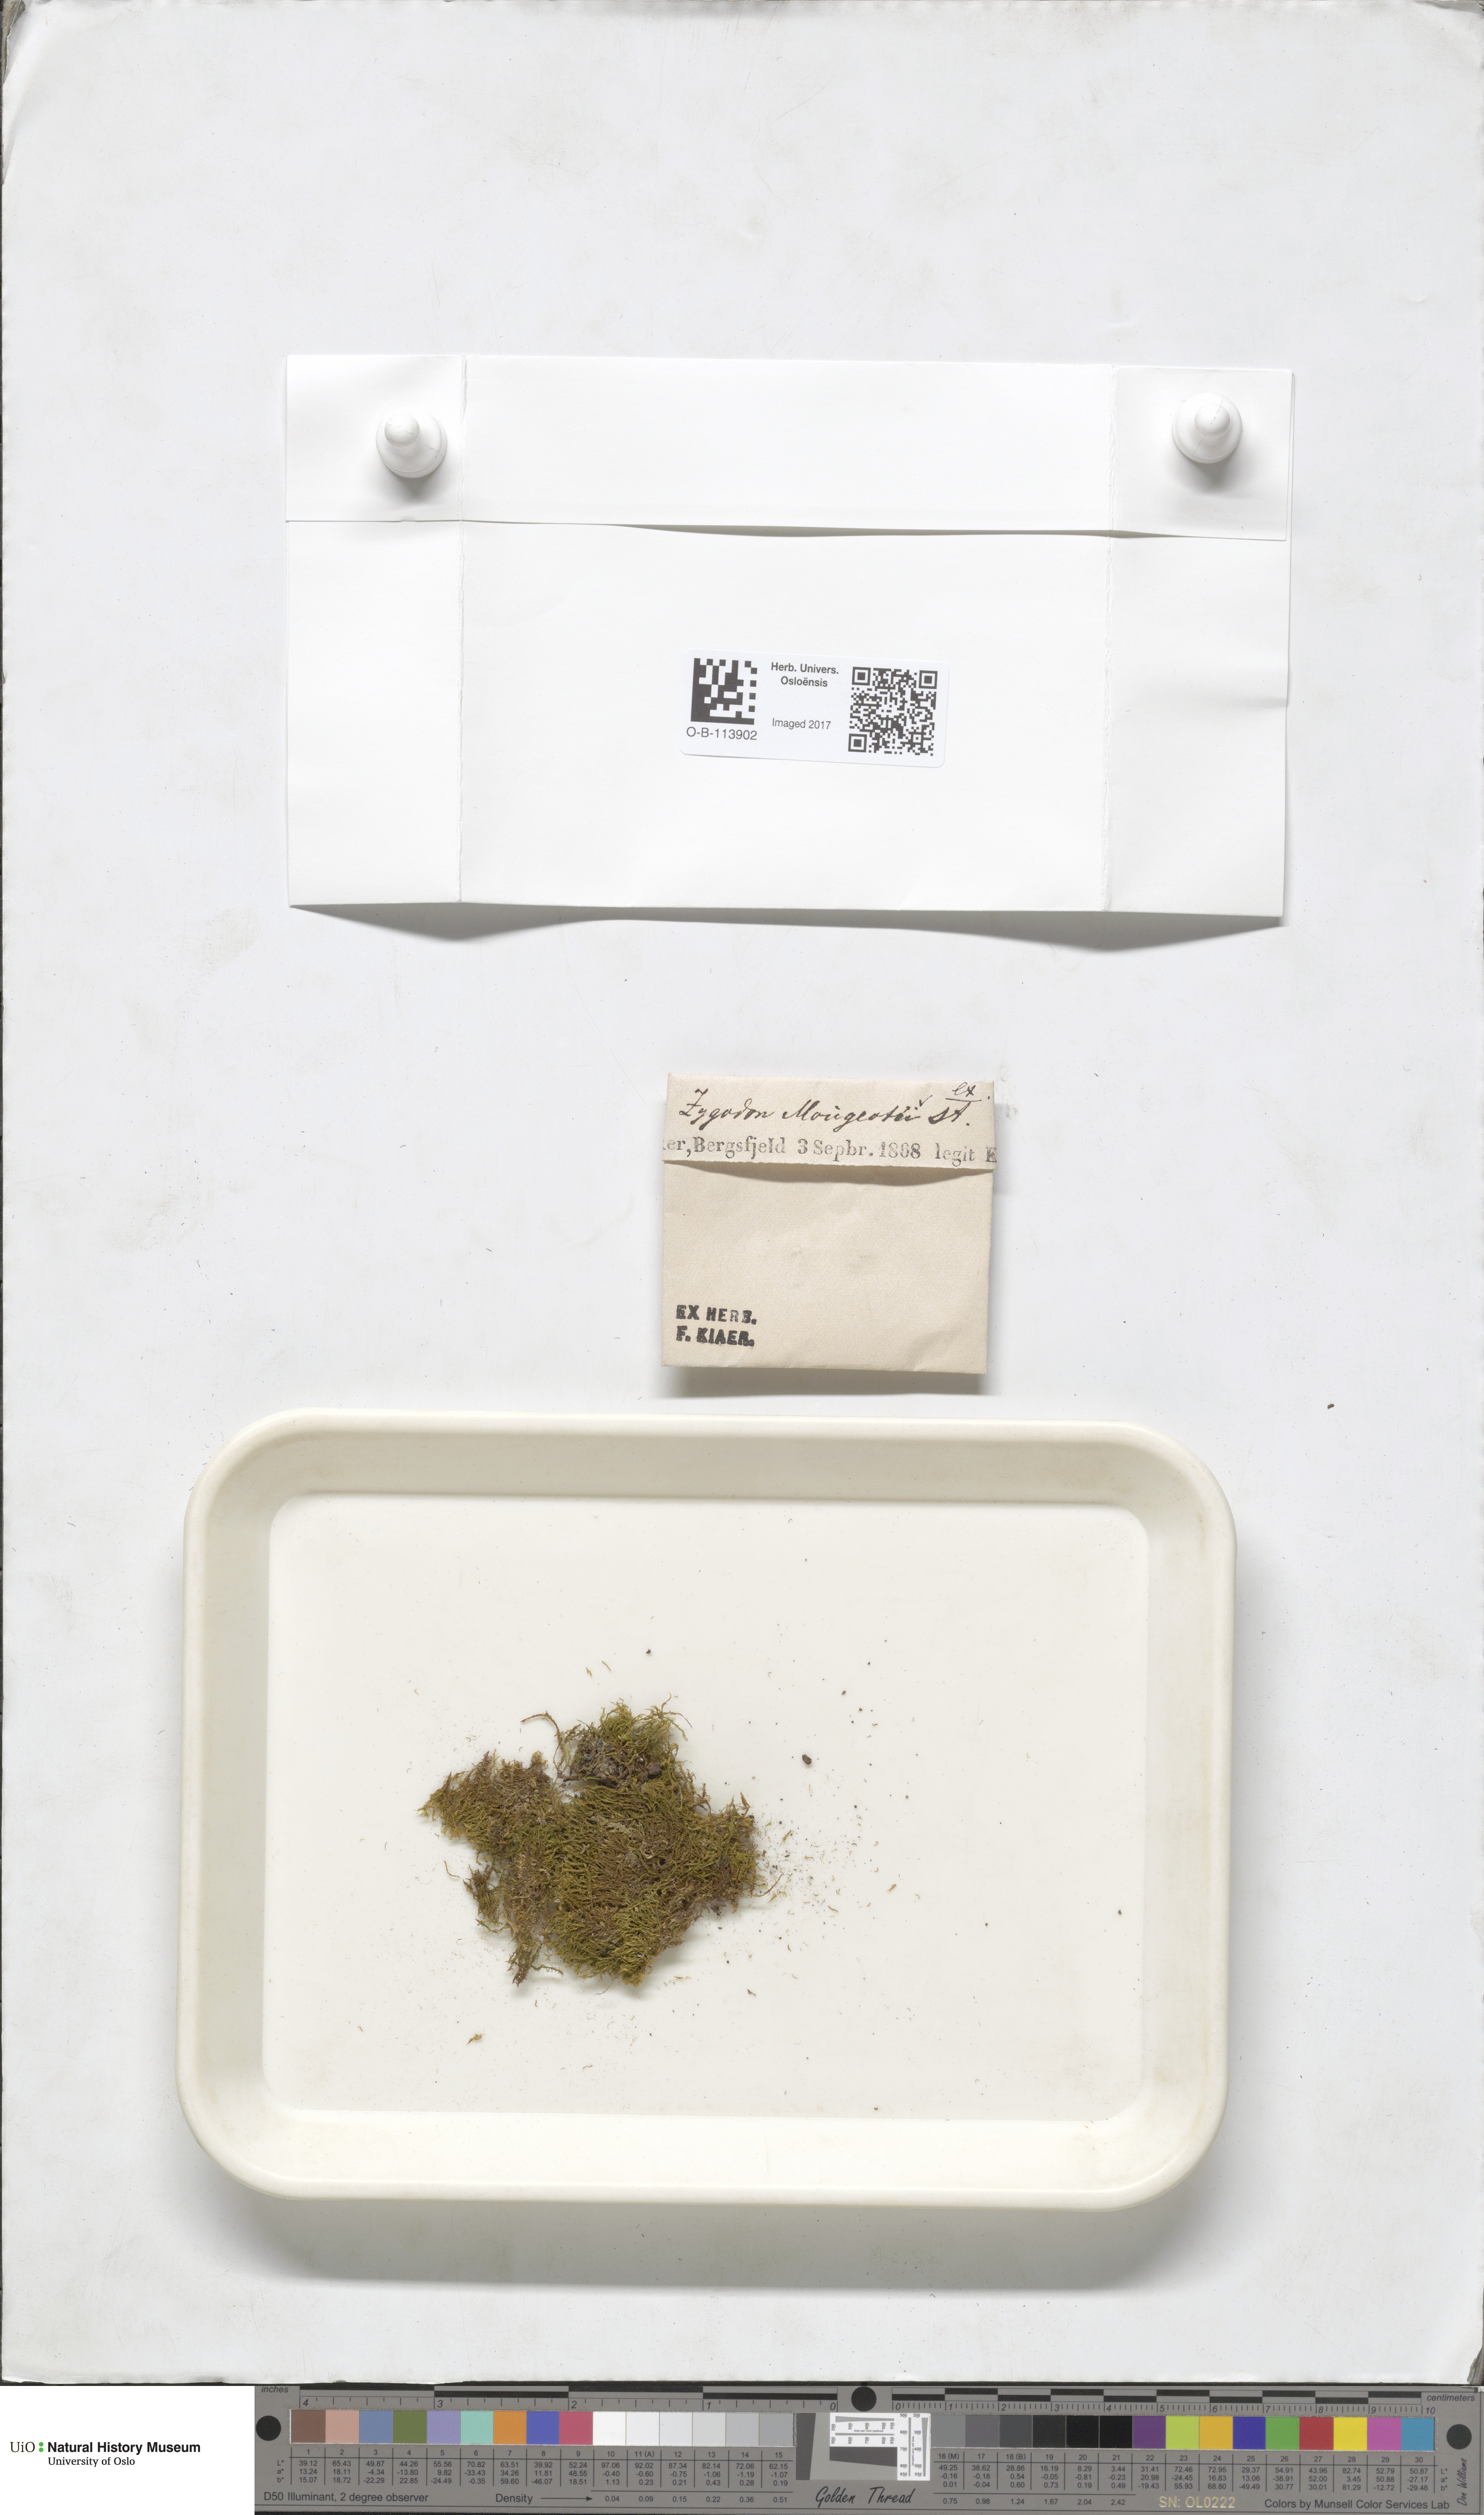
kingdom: Plantae
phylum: Bryophyta
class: Bryopsida
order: Dicranales
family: Amphidiaceae
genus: Amphidium
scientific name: Amphidium mougeotii
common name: Mougeot's yoke moss
